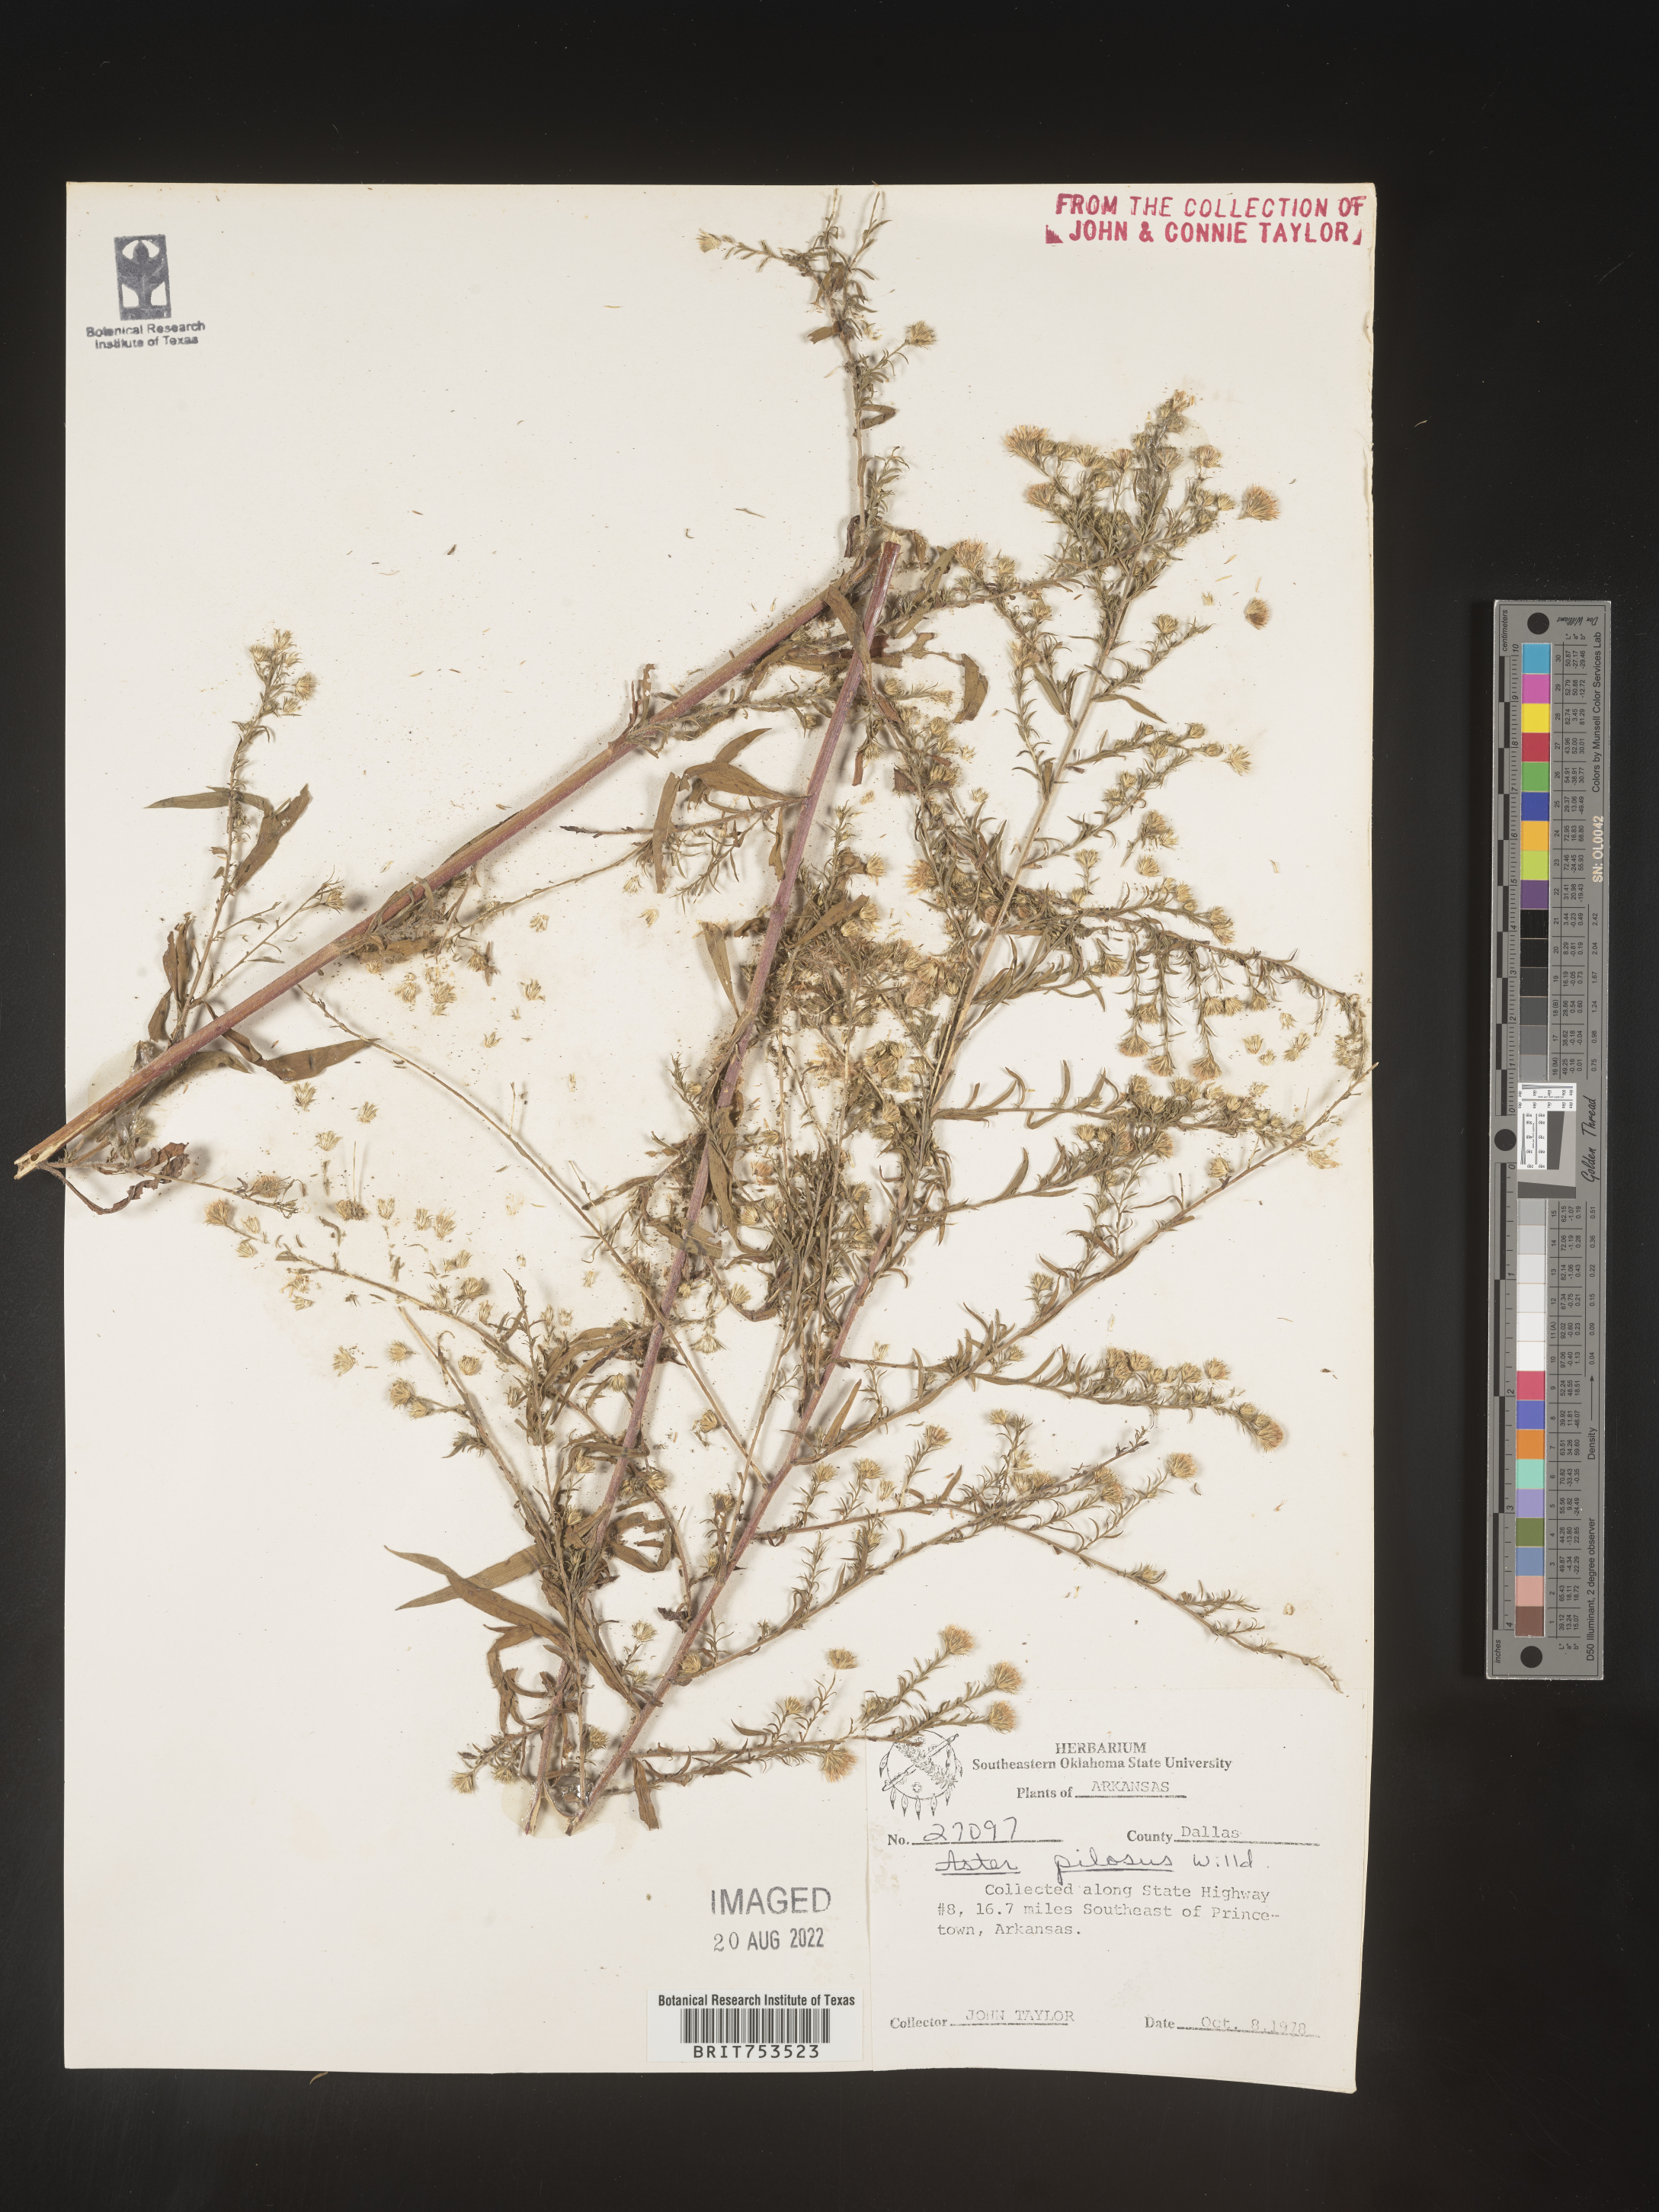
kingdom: Plantae
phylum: Tracheophyta
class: Magnoliopsida
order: Asterales
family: Asteraceae
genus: Symphyotrichum
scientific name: Symphyotrichum pilosum
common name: Awl aster
